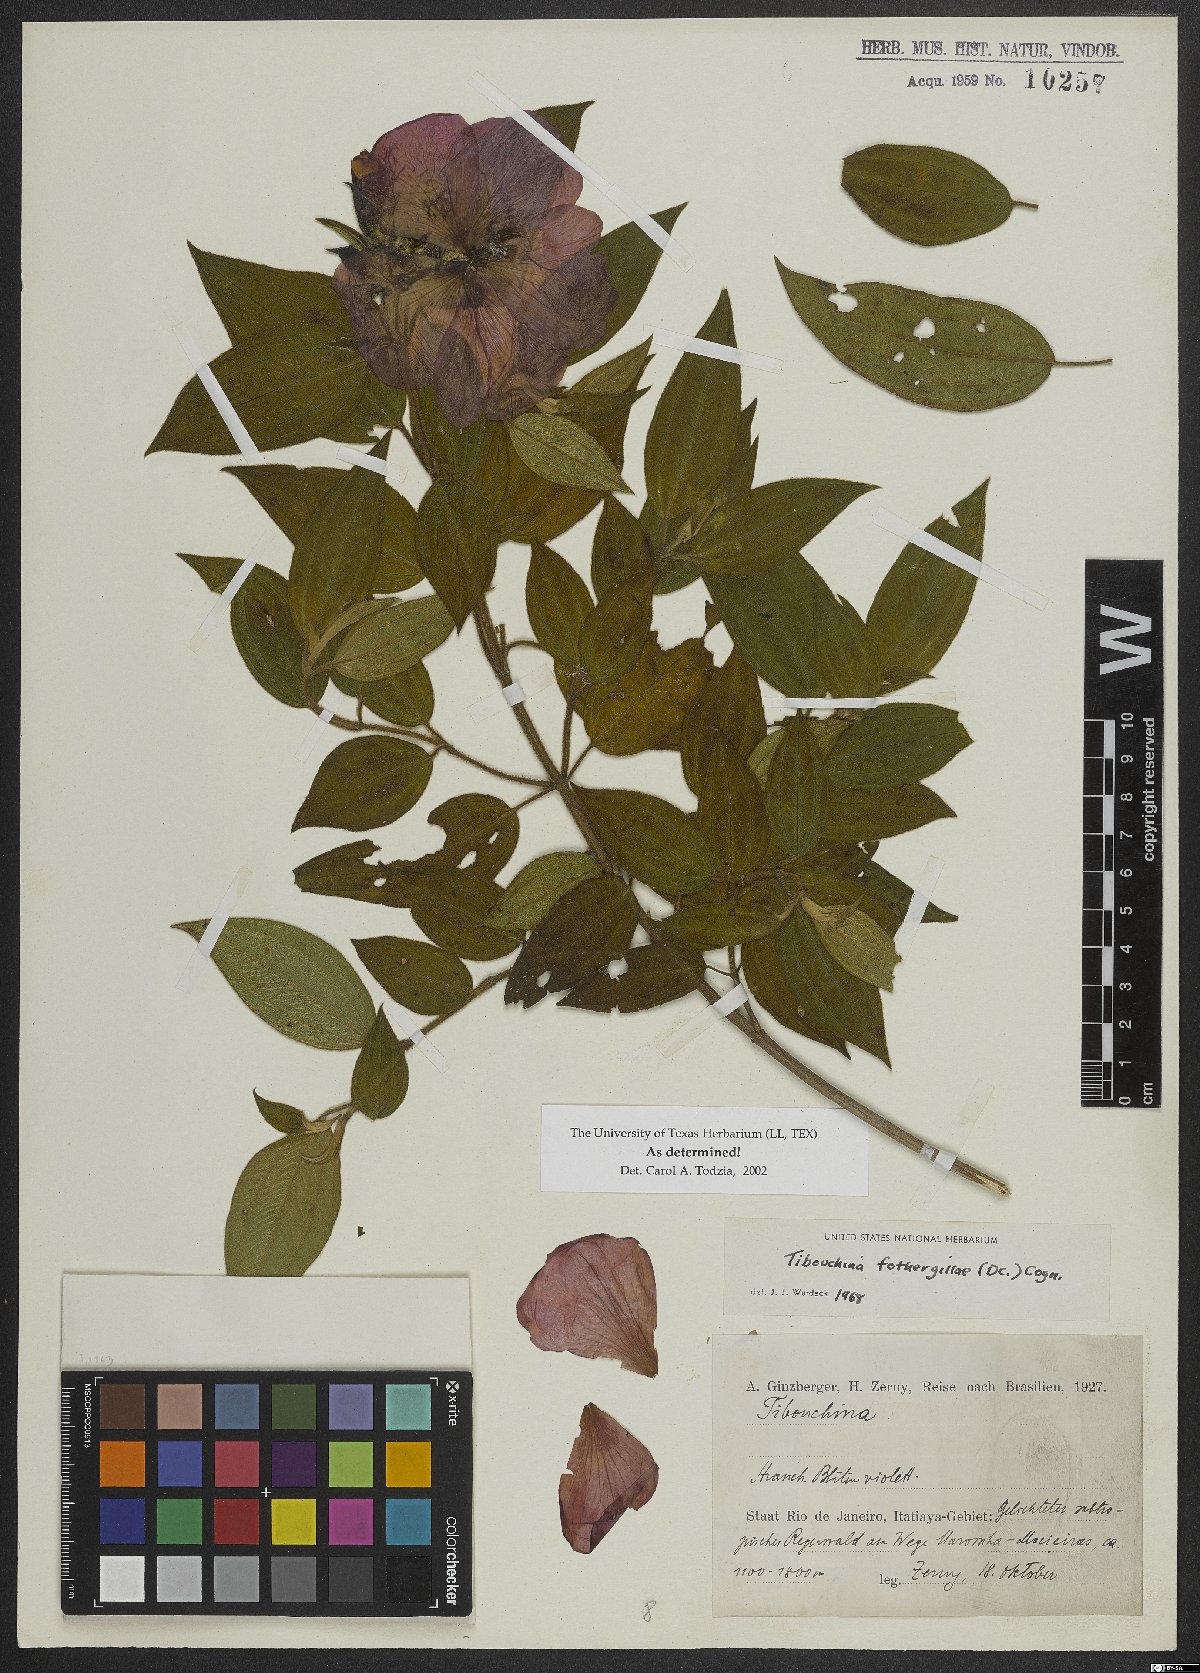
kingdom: Plantae
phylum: Tracheophyta
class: Magnoliopsida
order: Myrtales
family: Melastomataceae
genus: Pleroma
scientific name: Pleroma fothergillae
